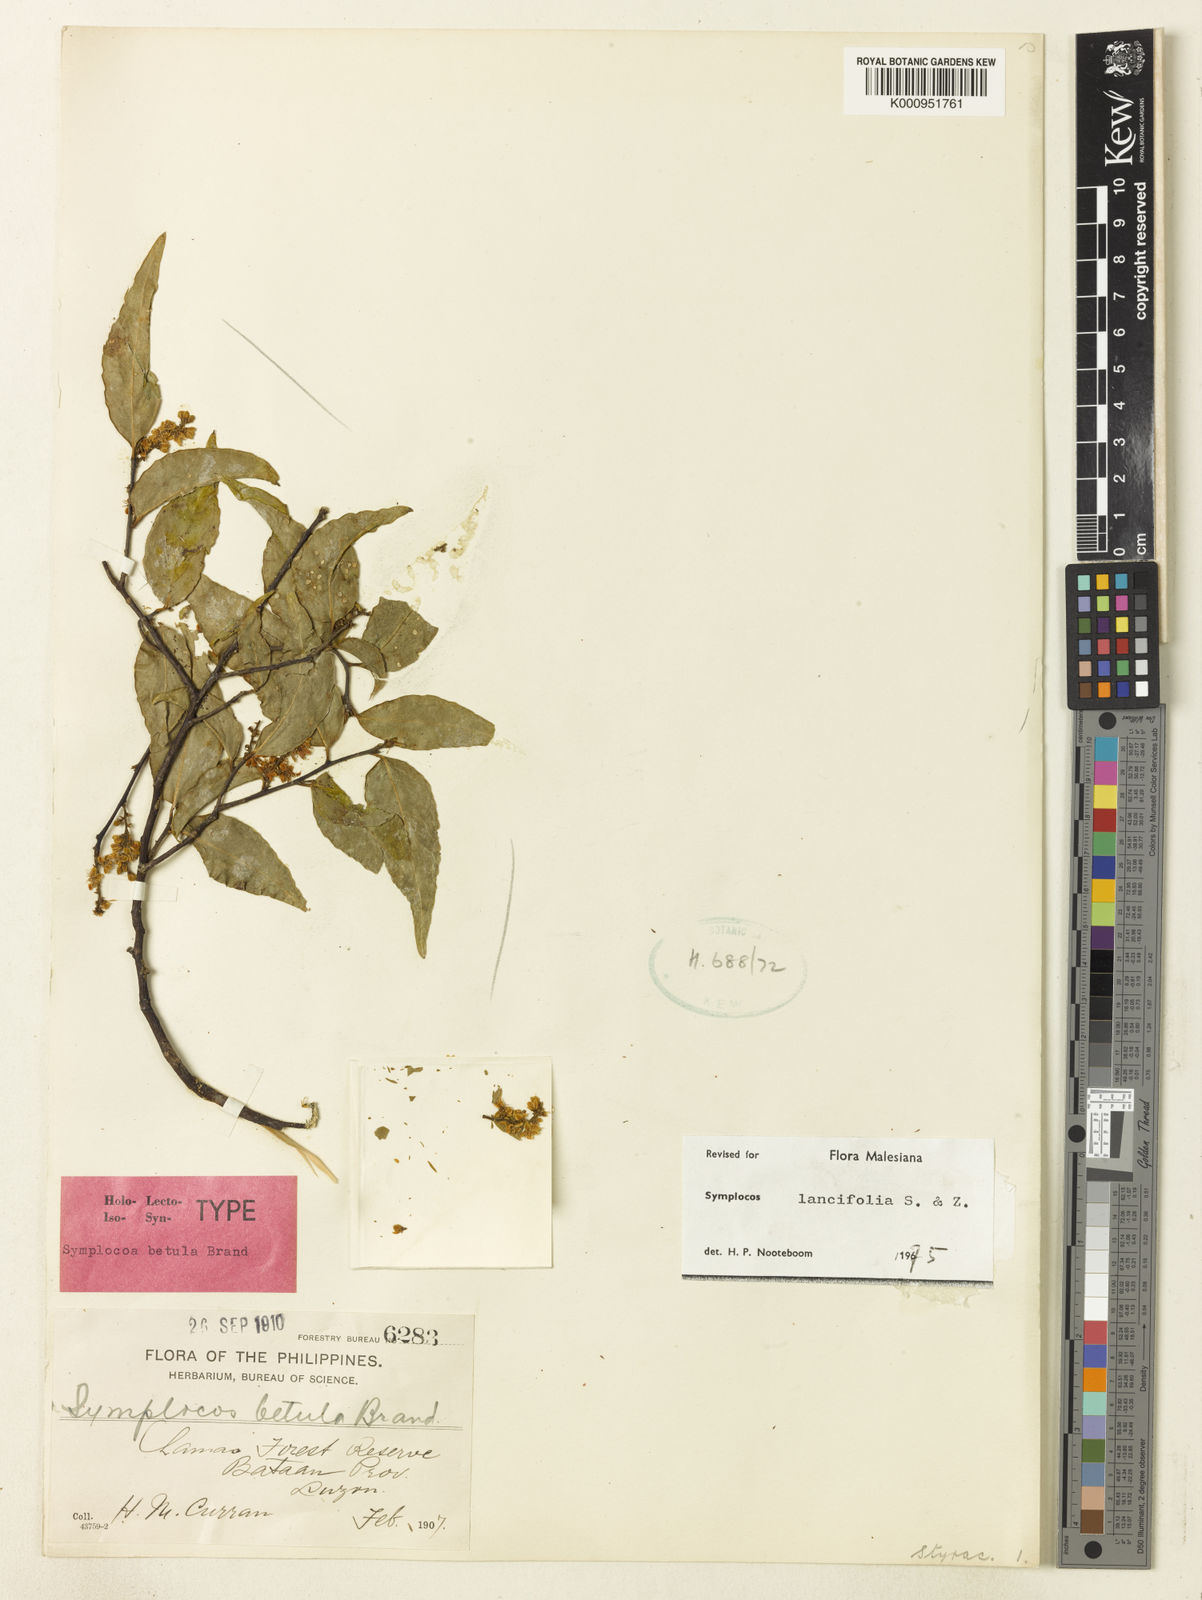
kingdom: Plantae
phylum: Tracheophyta
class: Magnoliopsida
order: Ericales
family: Symplocaceae
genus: Symplocos
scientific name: Symplocos
